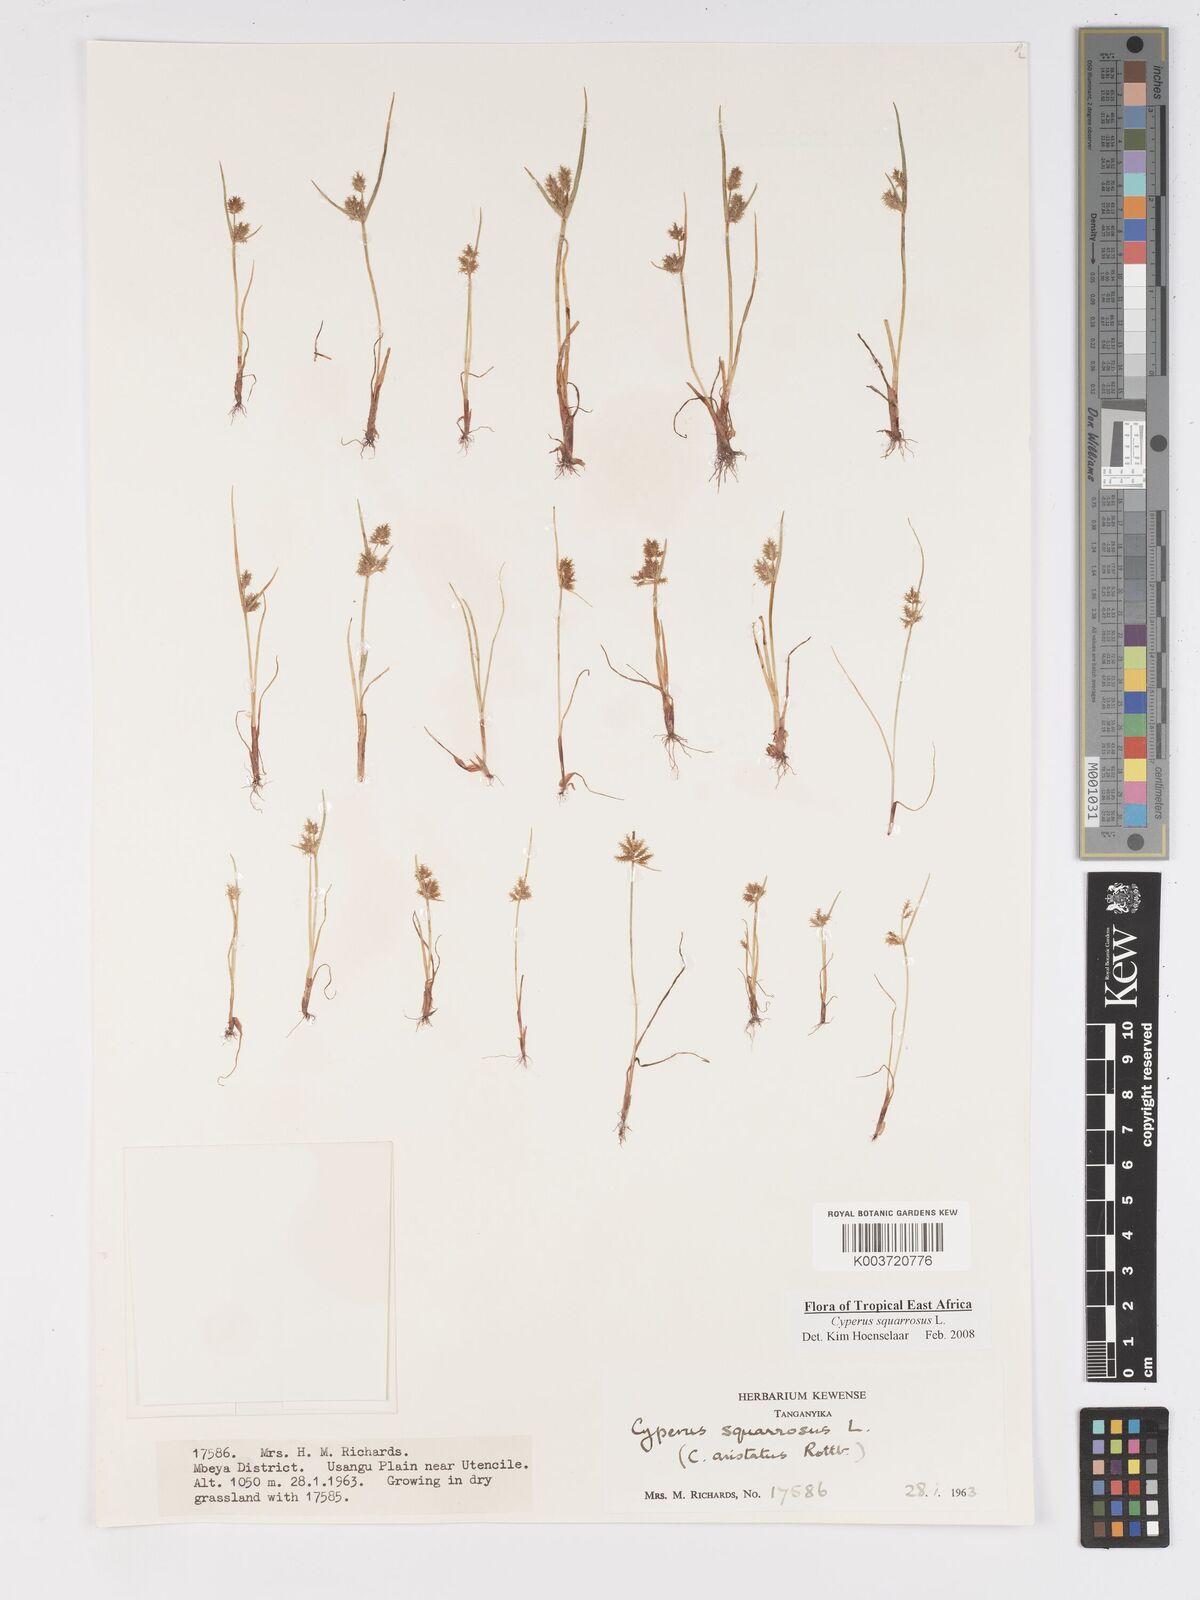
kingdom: Plantae
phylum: Tracheophyta
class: Liliopsida
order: Poales
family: Cyperaceae
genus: Cyperus
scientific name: Cyperus squarrosus
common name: Awned cyperus
